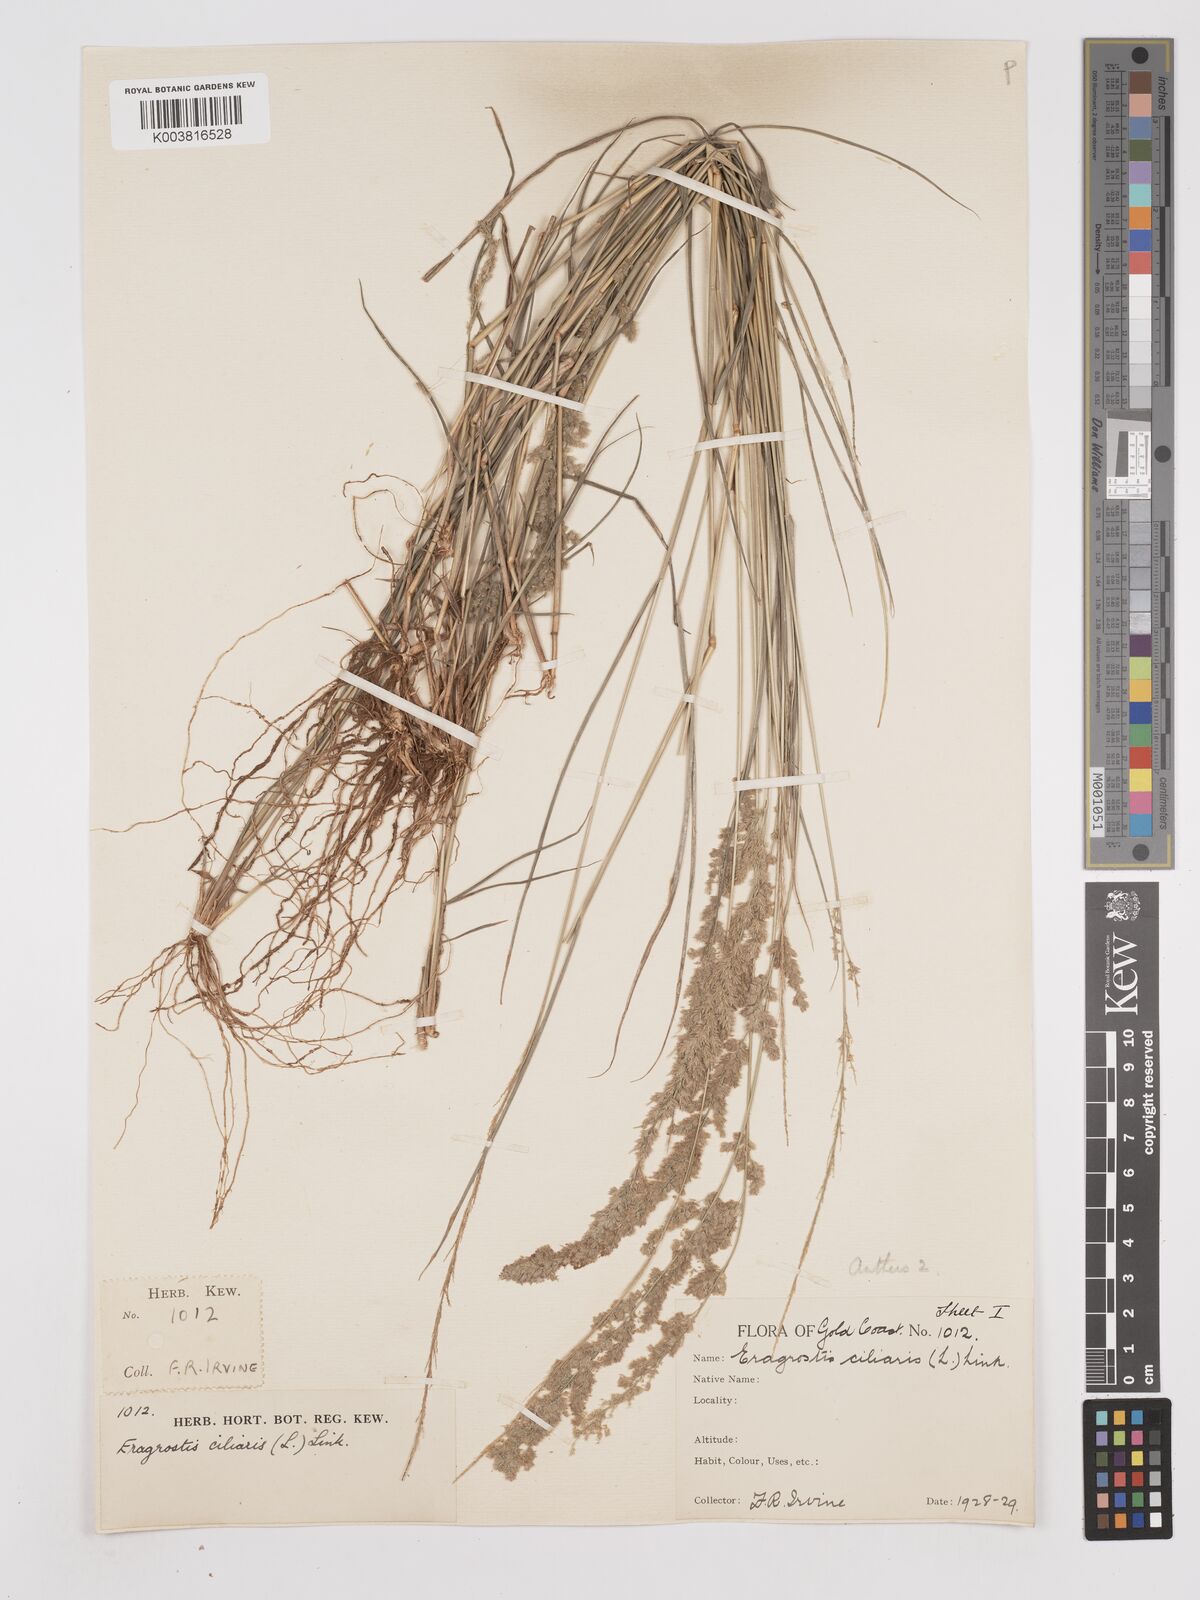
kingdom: Plantae
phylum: Tracheophyta
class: Liliopsida
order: Poales
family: Poaceae
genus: Eragrostis
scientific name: Eragrostis ciliaris
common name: Gophertail lovegrass
